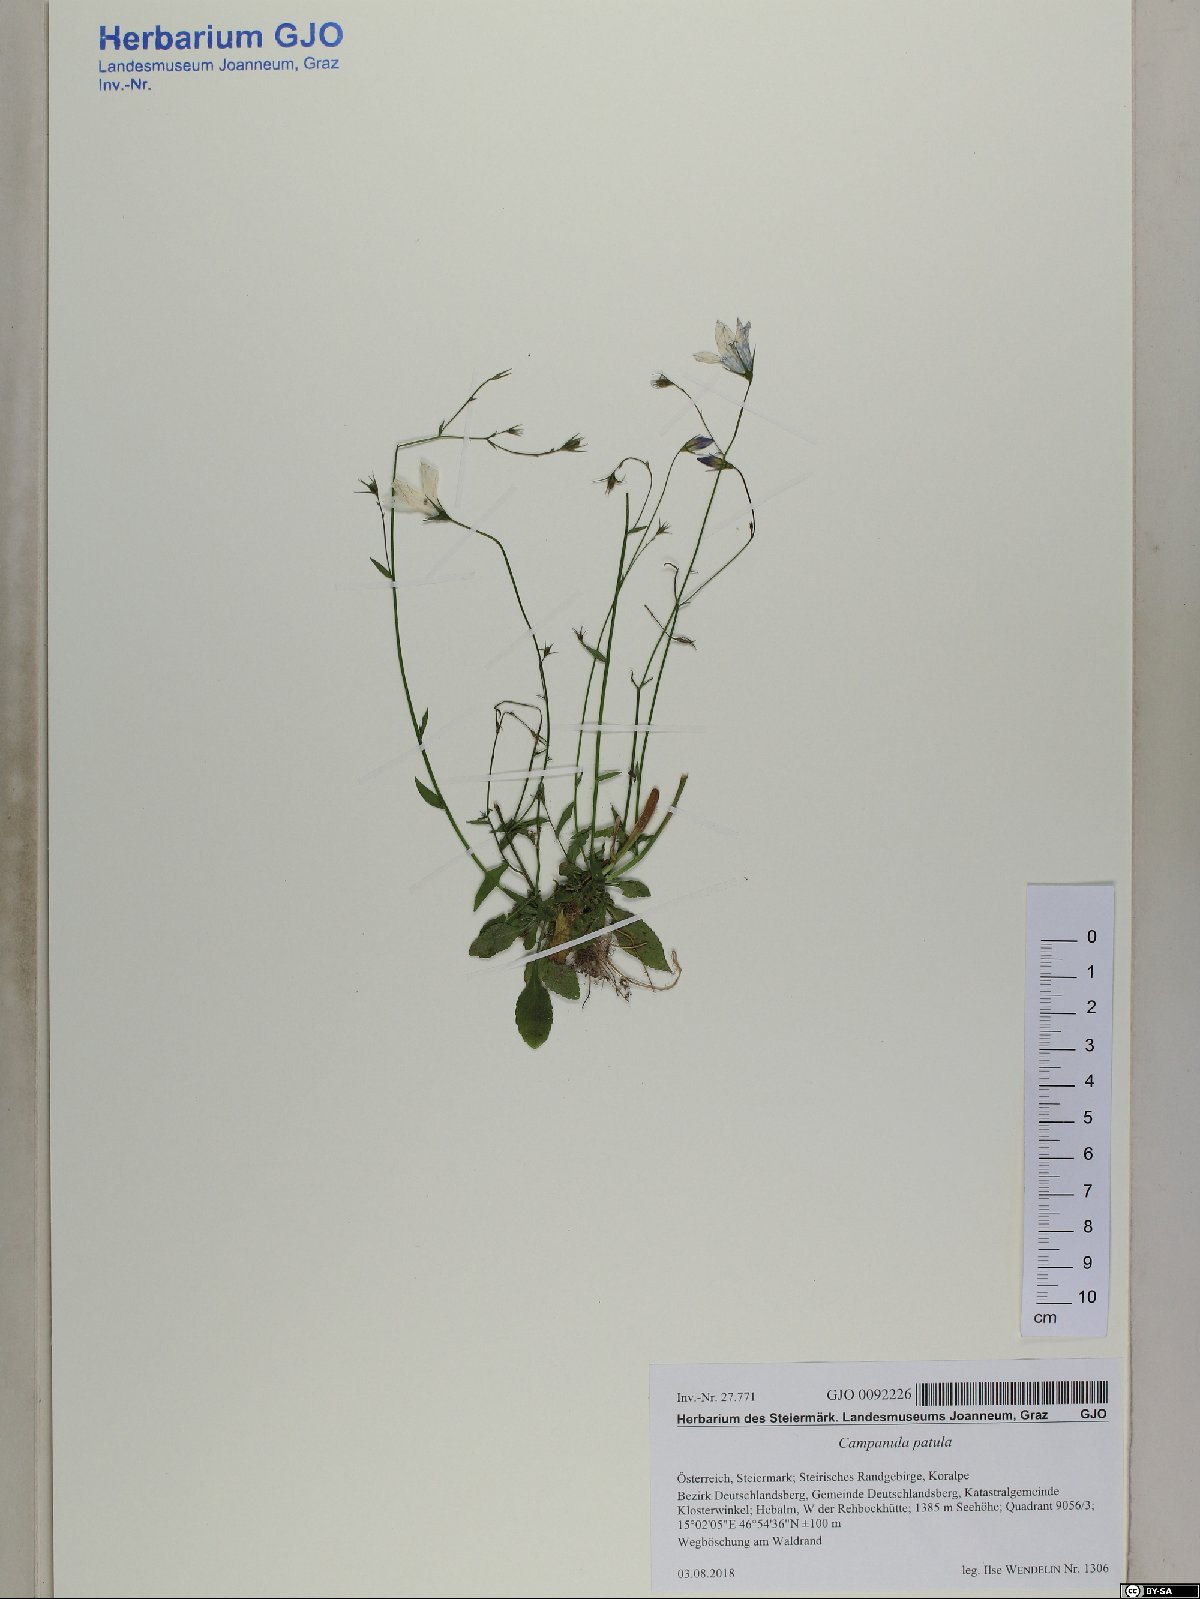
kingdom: Plantae
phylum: Tracheophyta
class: Magnoliopsida
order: Asterales
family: Campanulaceae
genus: Campanula
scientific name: Campanula patula
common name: Spreading bellflower
